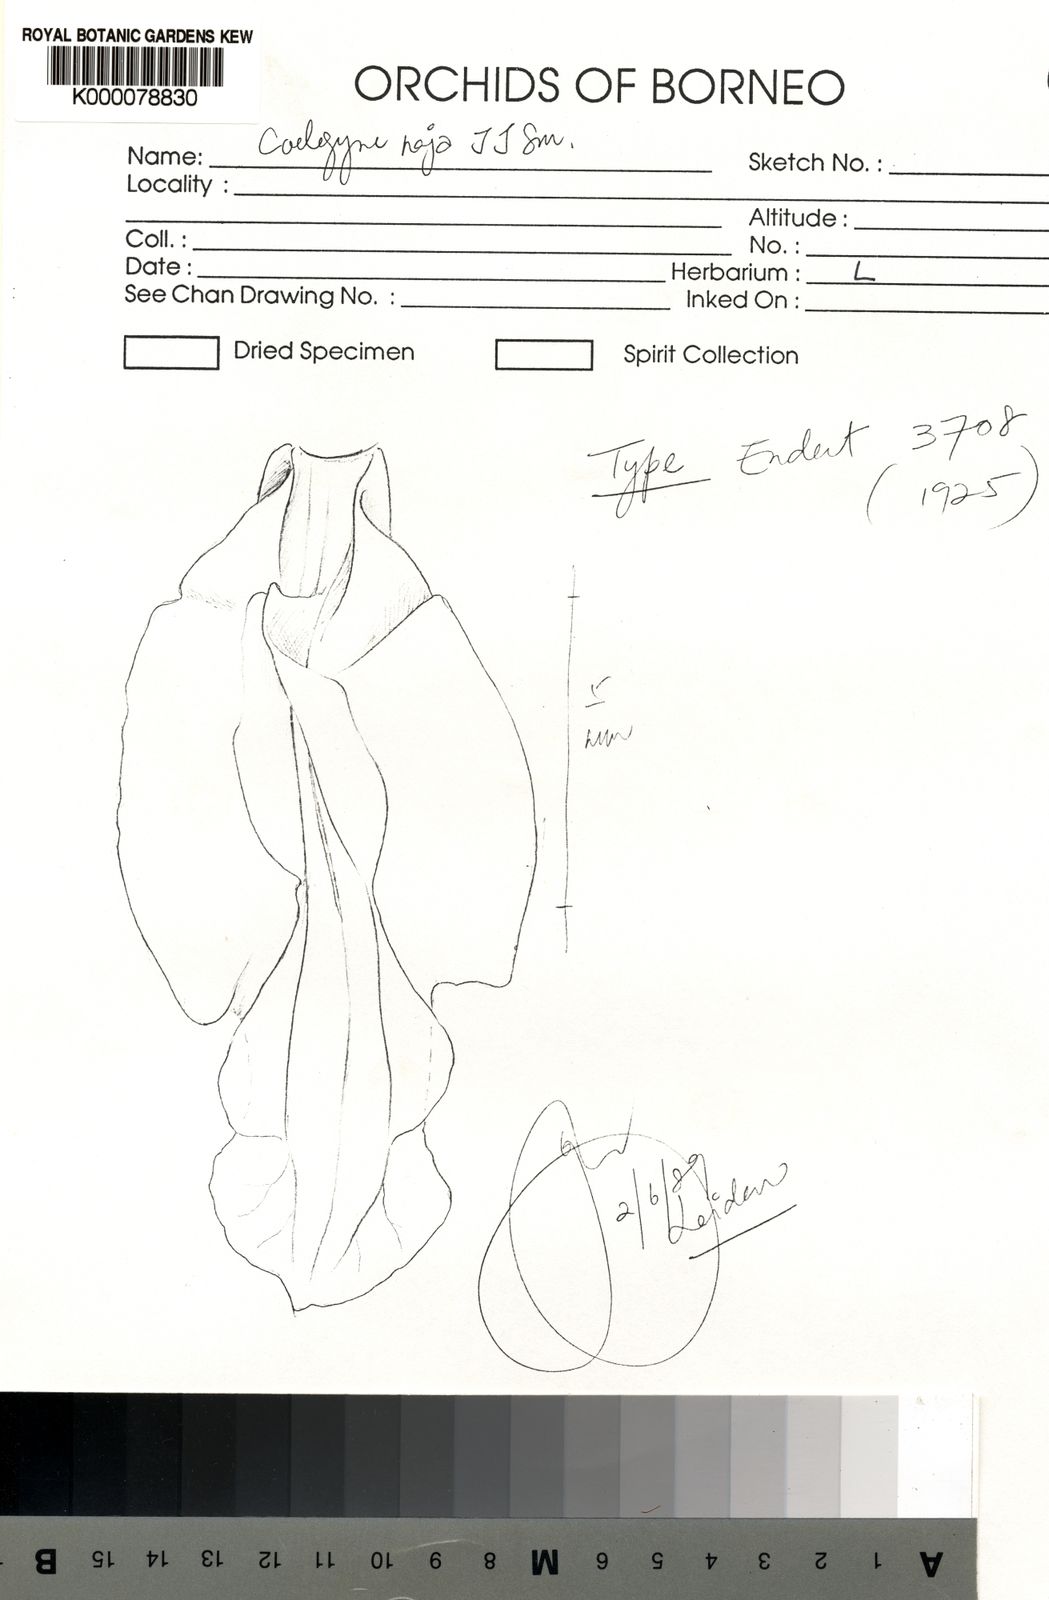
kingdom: Plantae
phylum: Tracheophyta
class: Liliopsida
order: Asparagales
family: Orchidaceae
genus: Coelogyne
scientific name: Coelogyne naja
